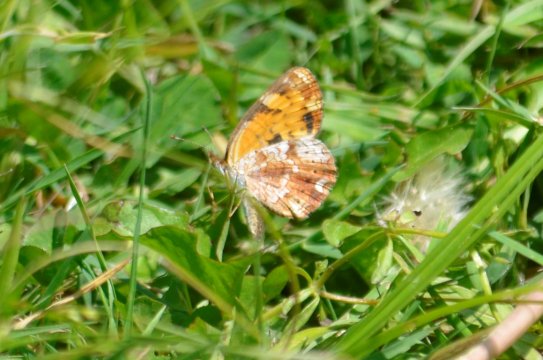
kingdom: Animalia
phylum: Arthropoda
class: Insecta
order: Lepidoptera
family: Nymphalidae
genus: Phyciodes
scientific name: Phyciodes
